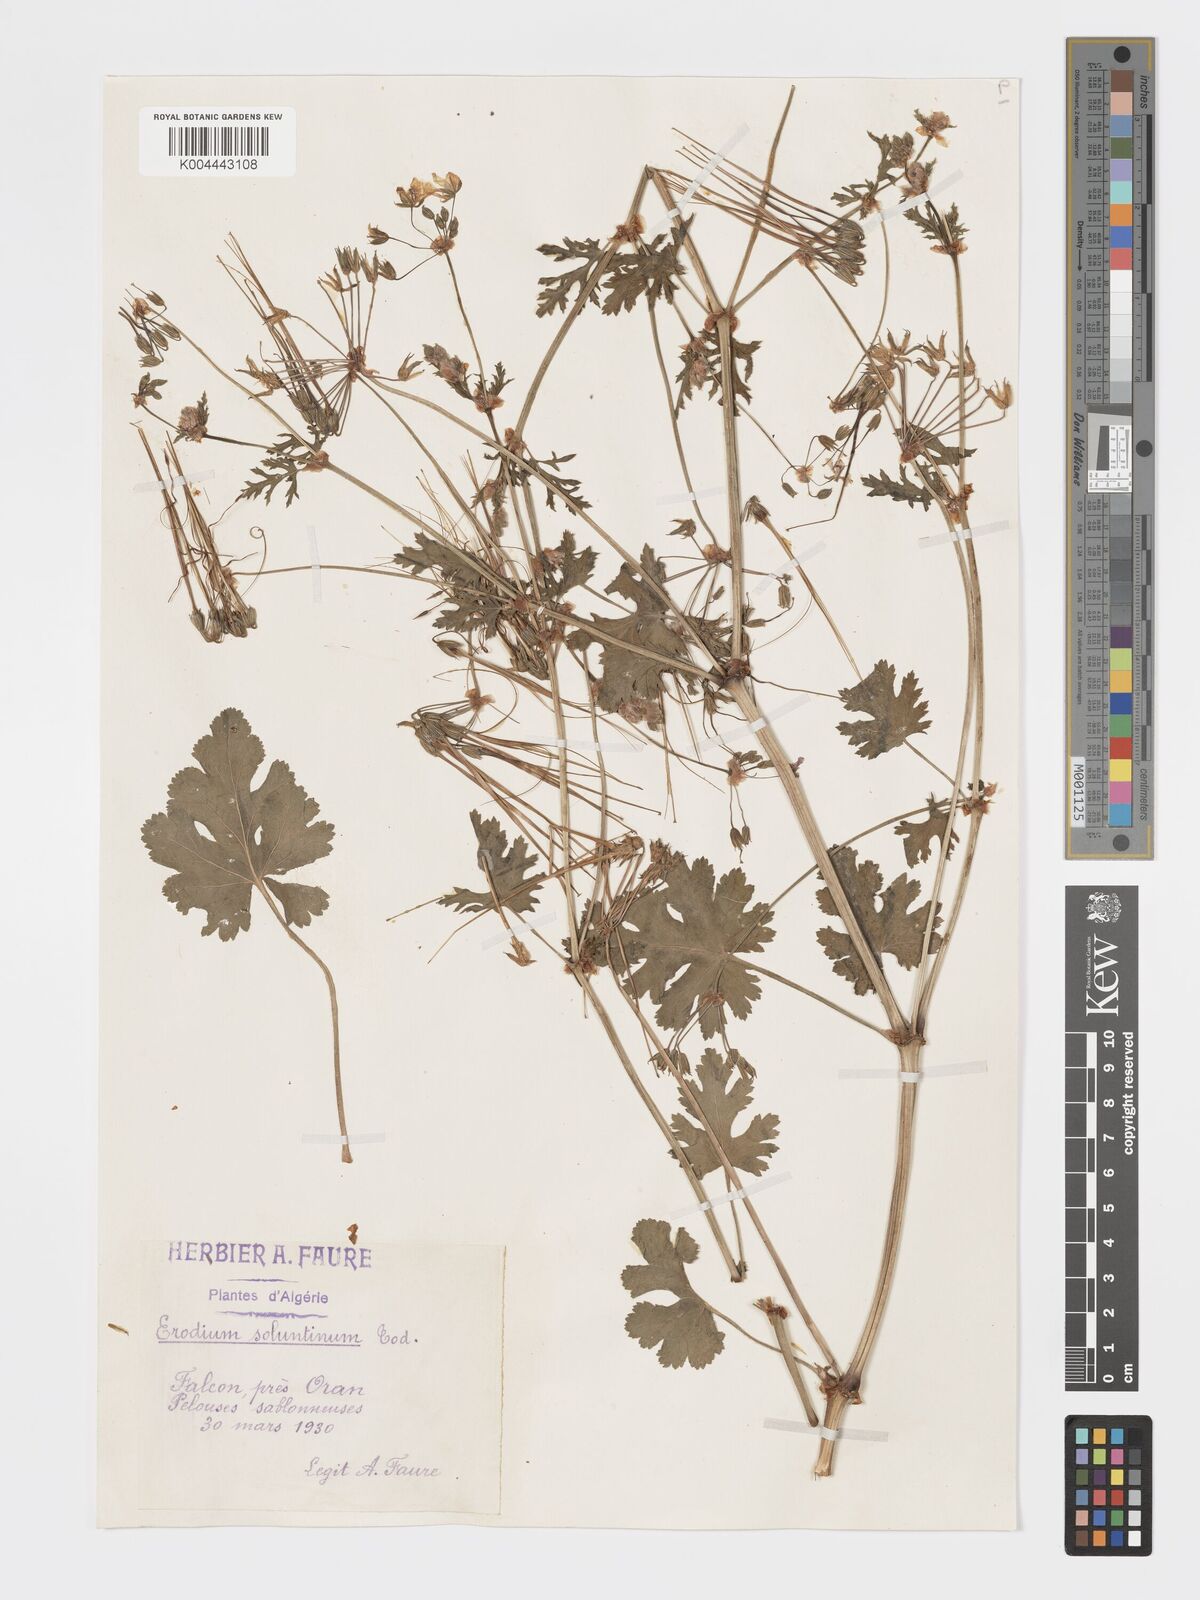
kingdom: Plantae
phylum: Tracheophyta
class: Magnoliopsida
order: Geraniales
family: Geraniaceae
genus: Erodium
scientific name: Erodium laciniatum
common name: Cutleaf stork's bill
